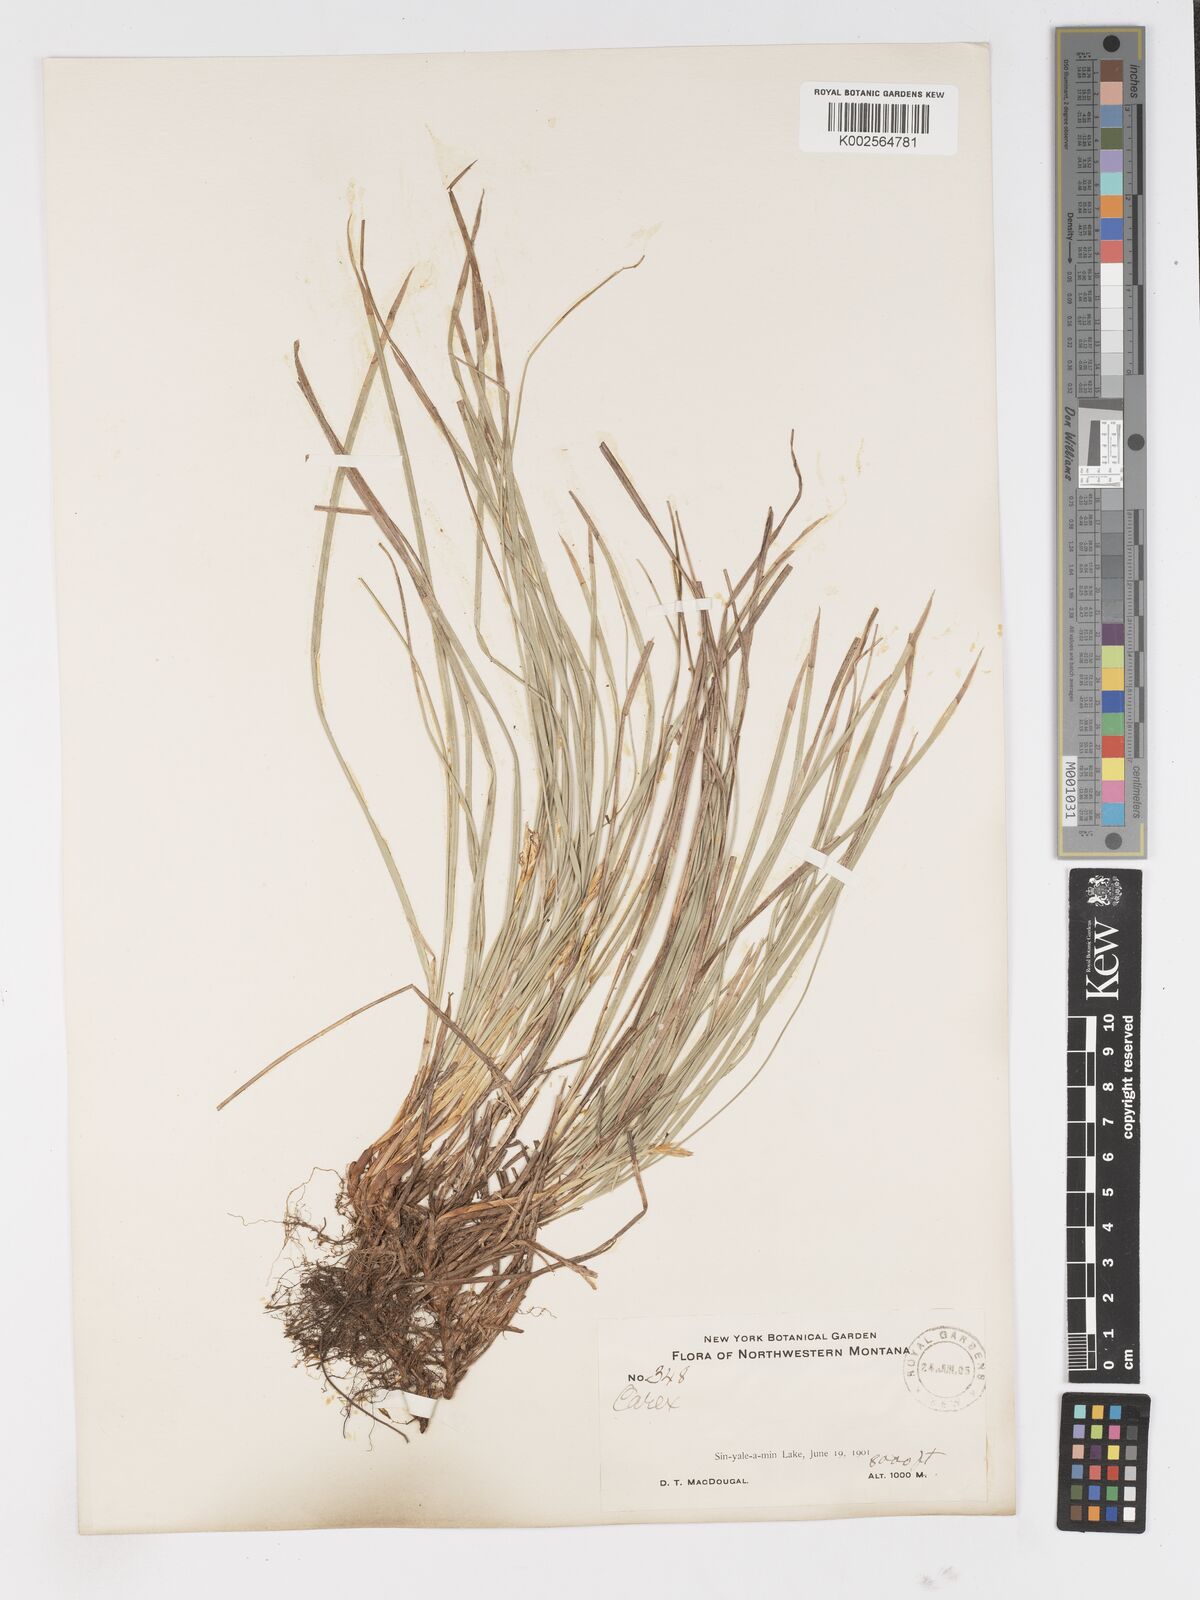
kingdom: Plantae
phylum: Tracheophyta
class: Liliopsida
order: Poales
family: Cyperaceae
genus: Carex
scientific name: Carex
